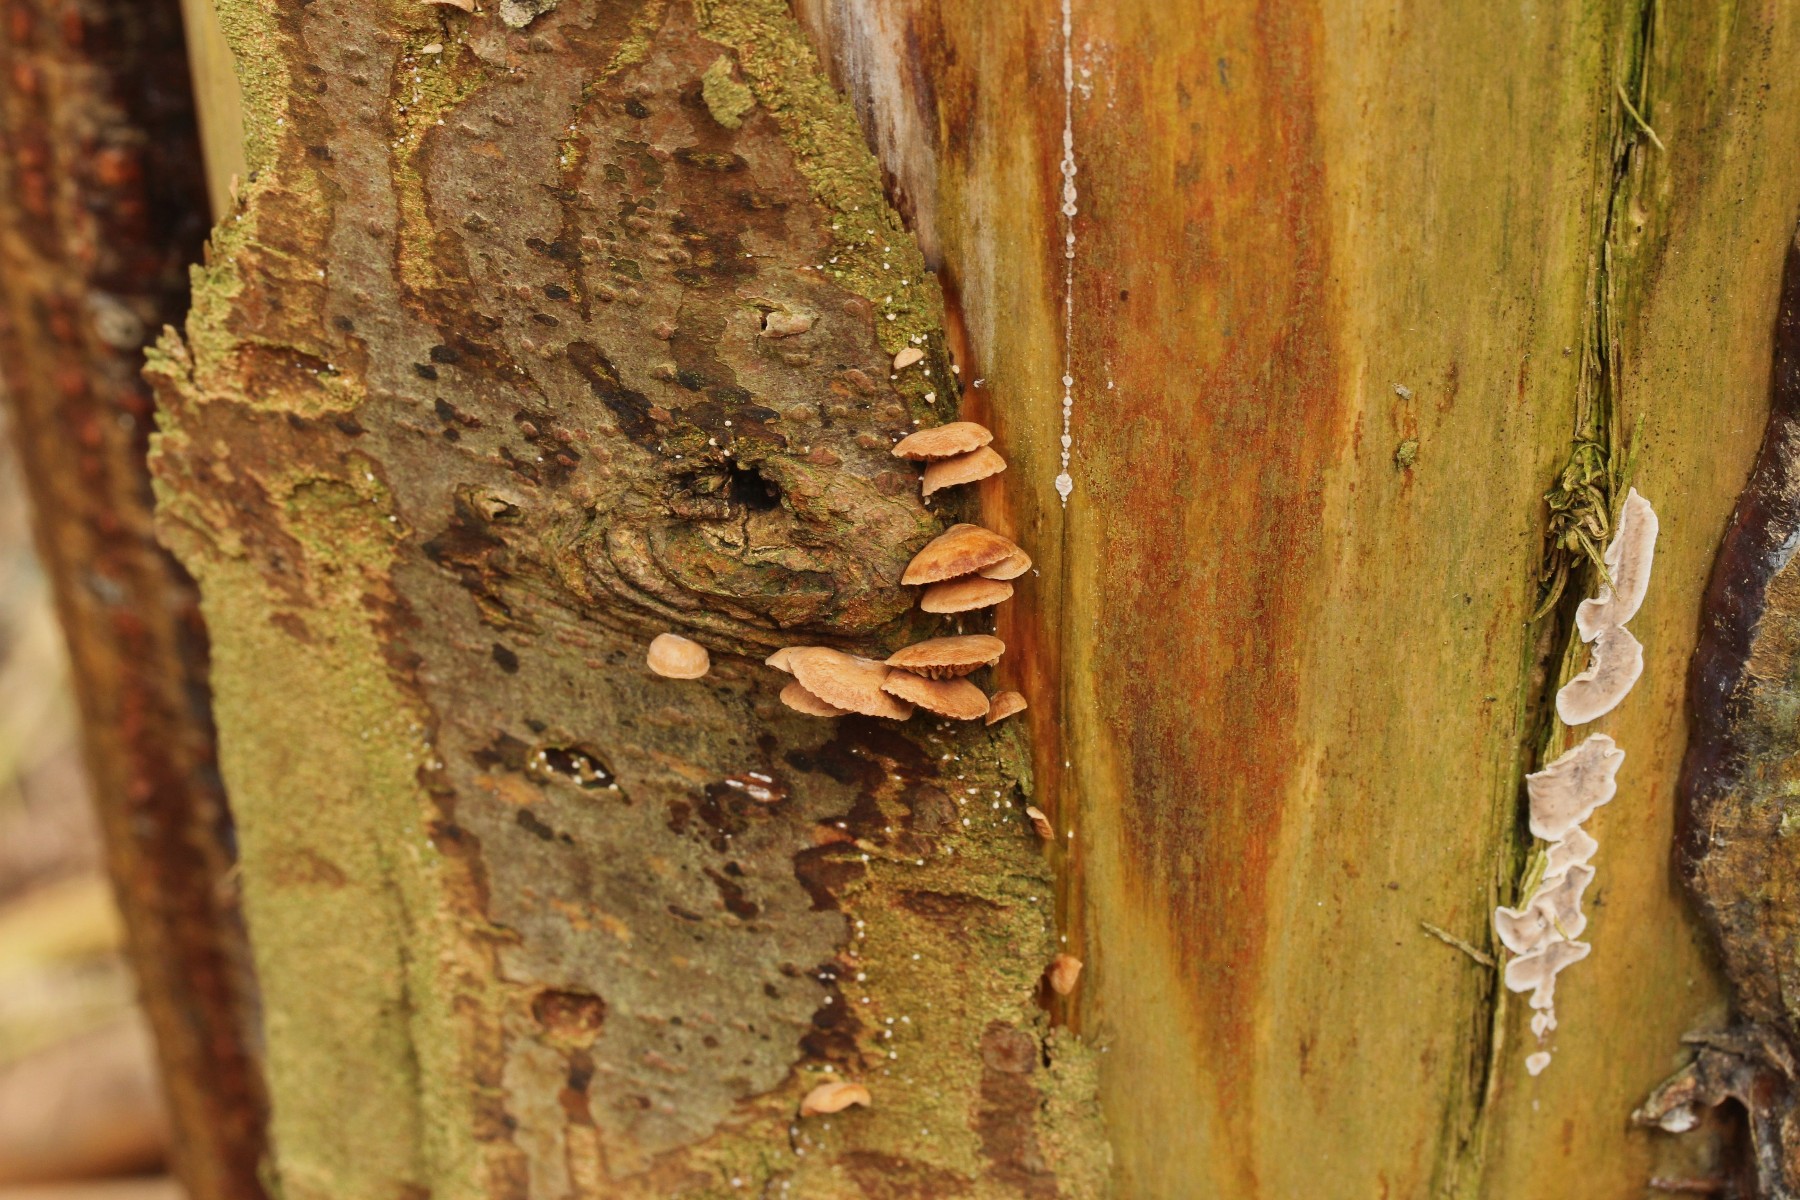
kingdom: Fungi
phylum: Basidiomycota
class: Agaricomycetes
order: Agaricales
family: Strophariaceae
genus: Deconica
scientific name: Deconica horizontalis
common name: ved-stråhat
